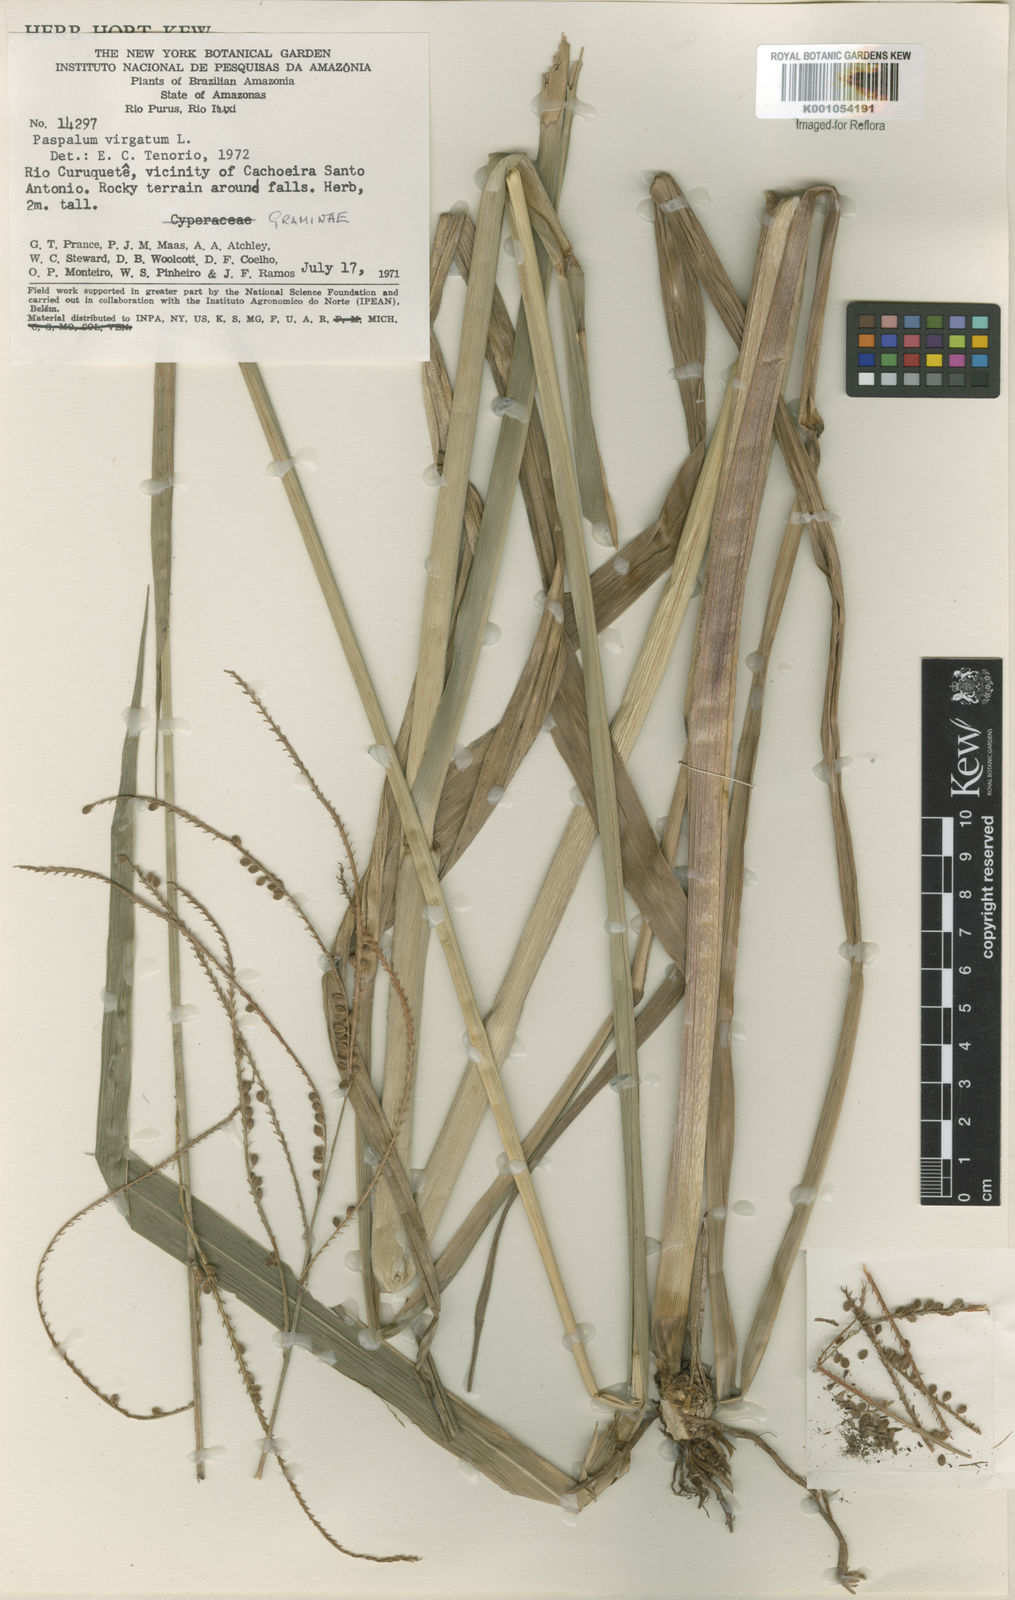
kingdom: Plantae
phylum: Tracheophyta
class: Liliopsida
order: Poales
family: Poaceae
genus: Paspalum
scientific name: Paspalum virgatum
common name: Talquezal
